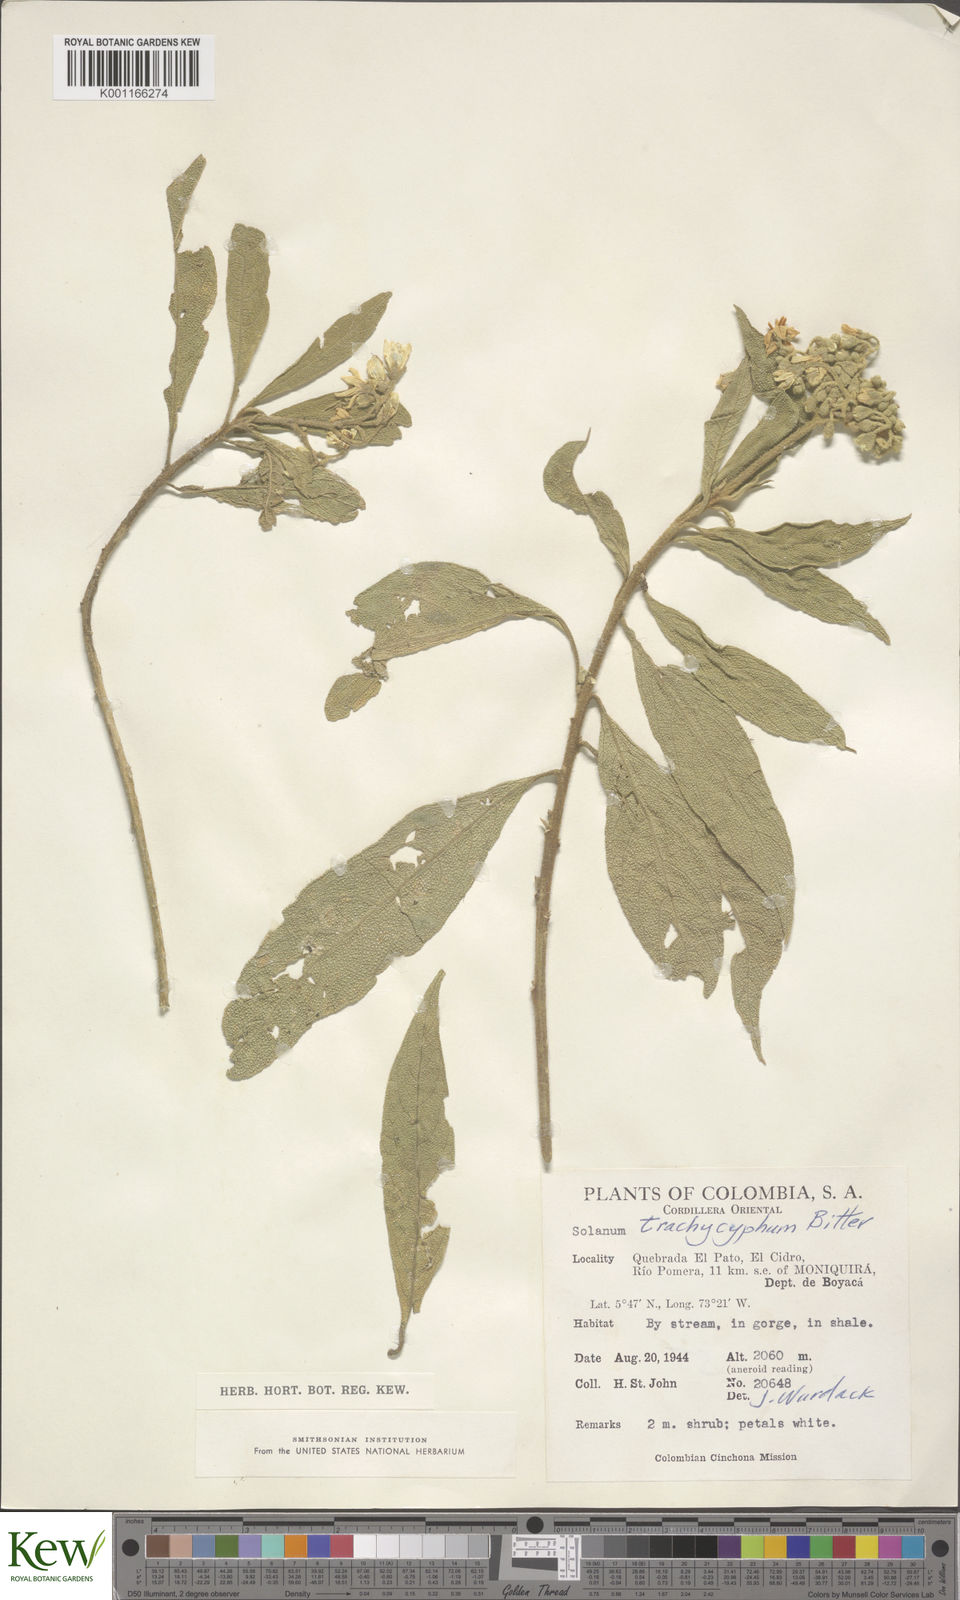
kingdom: Plantae
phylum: Tracheophyta
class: Magnoliopsida
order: Solanales
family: Solanaceae
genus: Solanum
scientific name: Solanum trachycyphum
